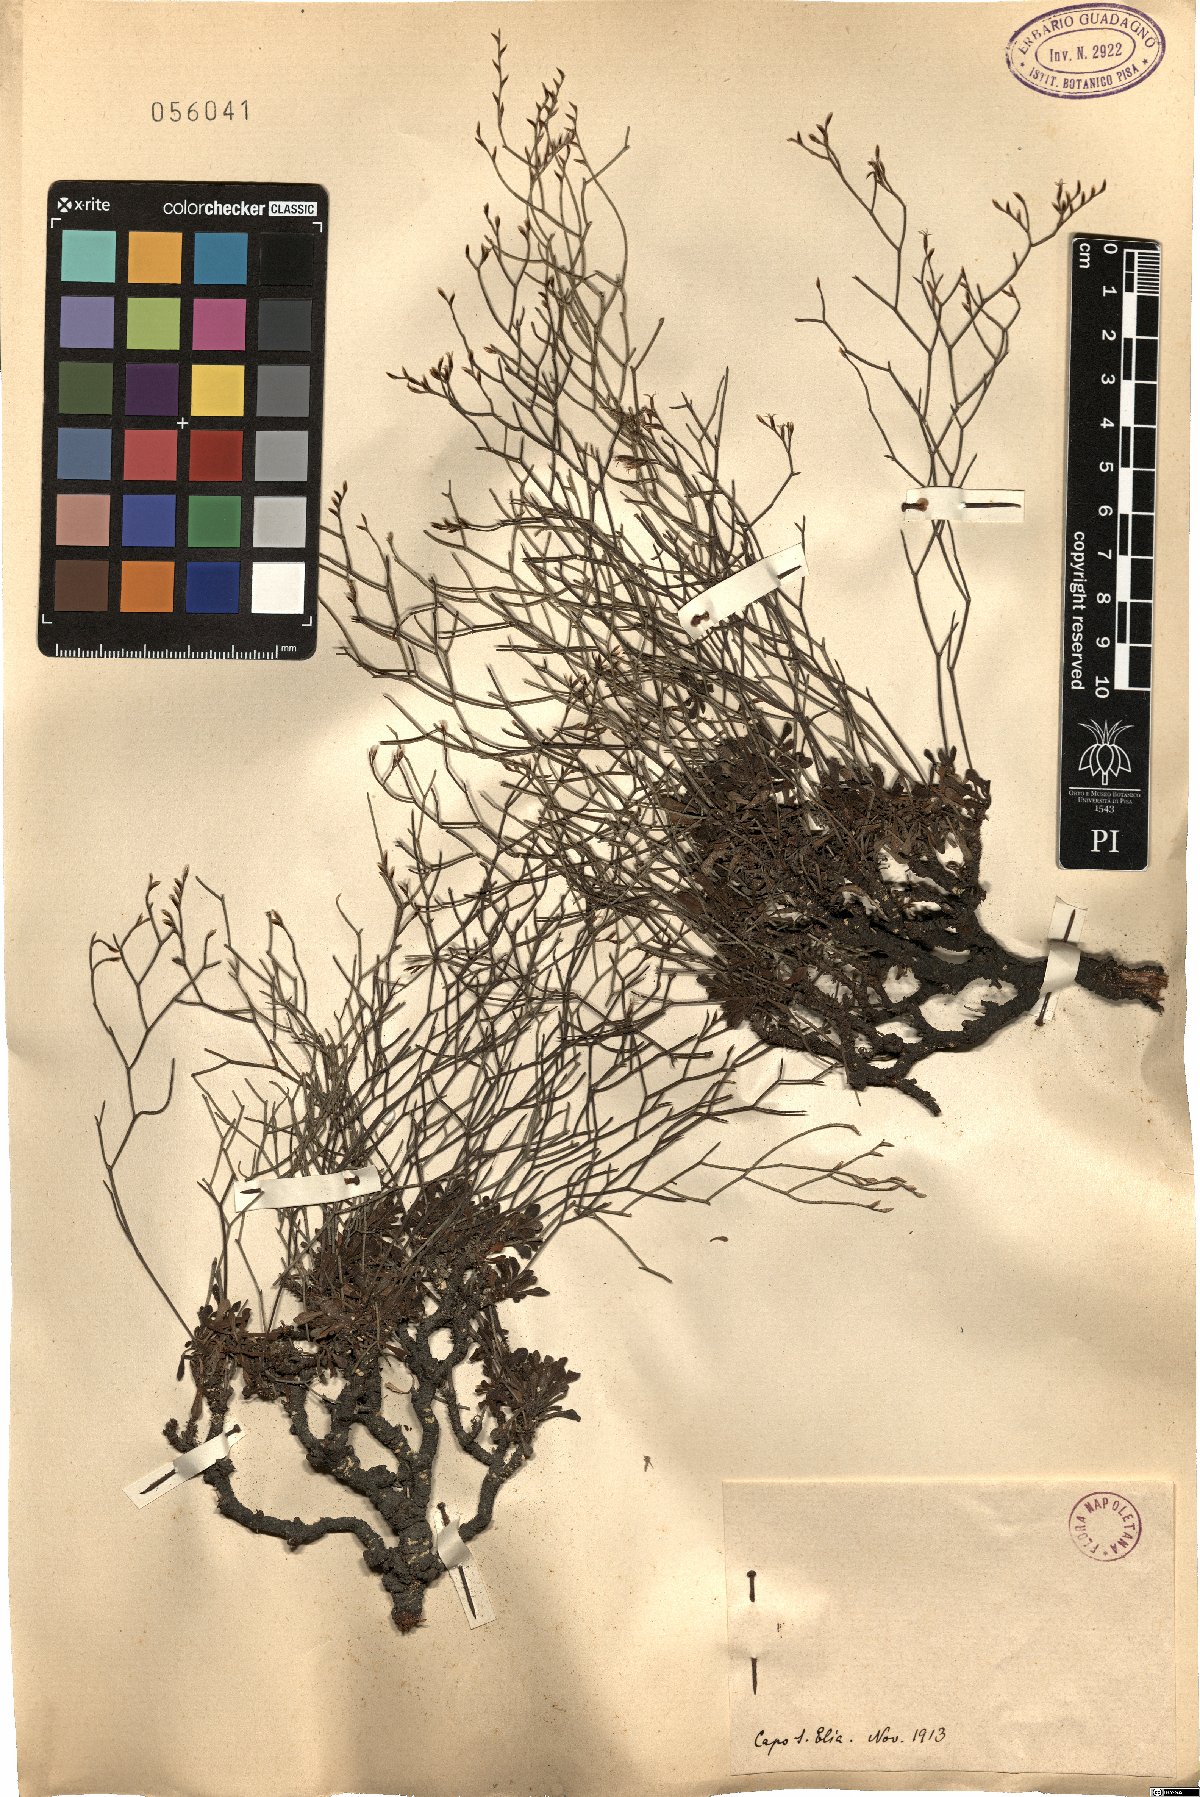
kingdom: Plantae
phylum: Tracheophyta
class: Magnoliopsida
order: Caryophyllales
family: Plumbaginaceae
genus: Armeria
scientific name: Armeria
